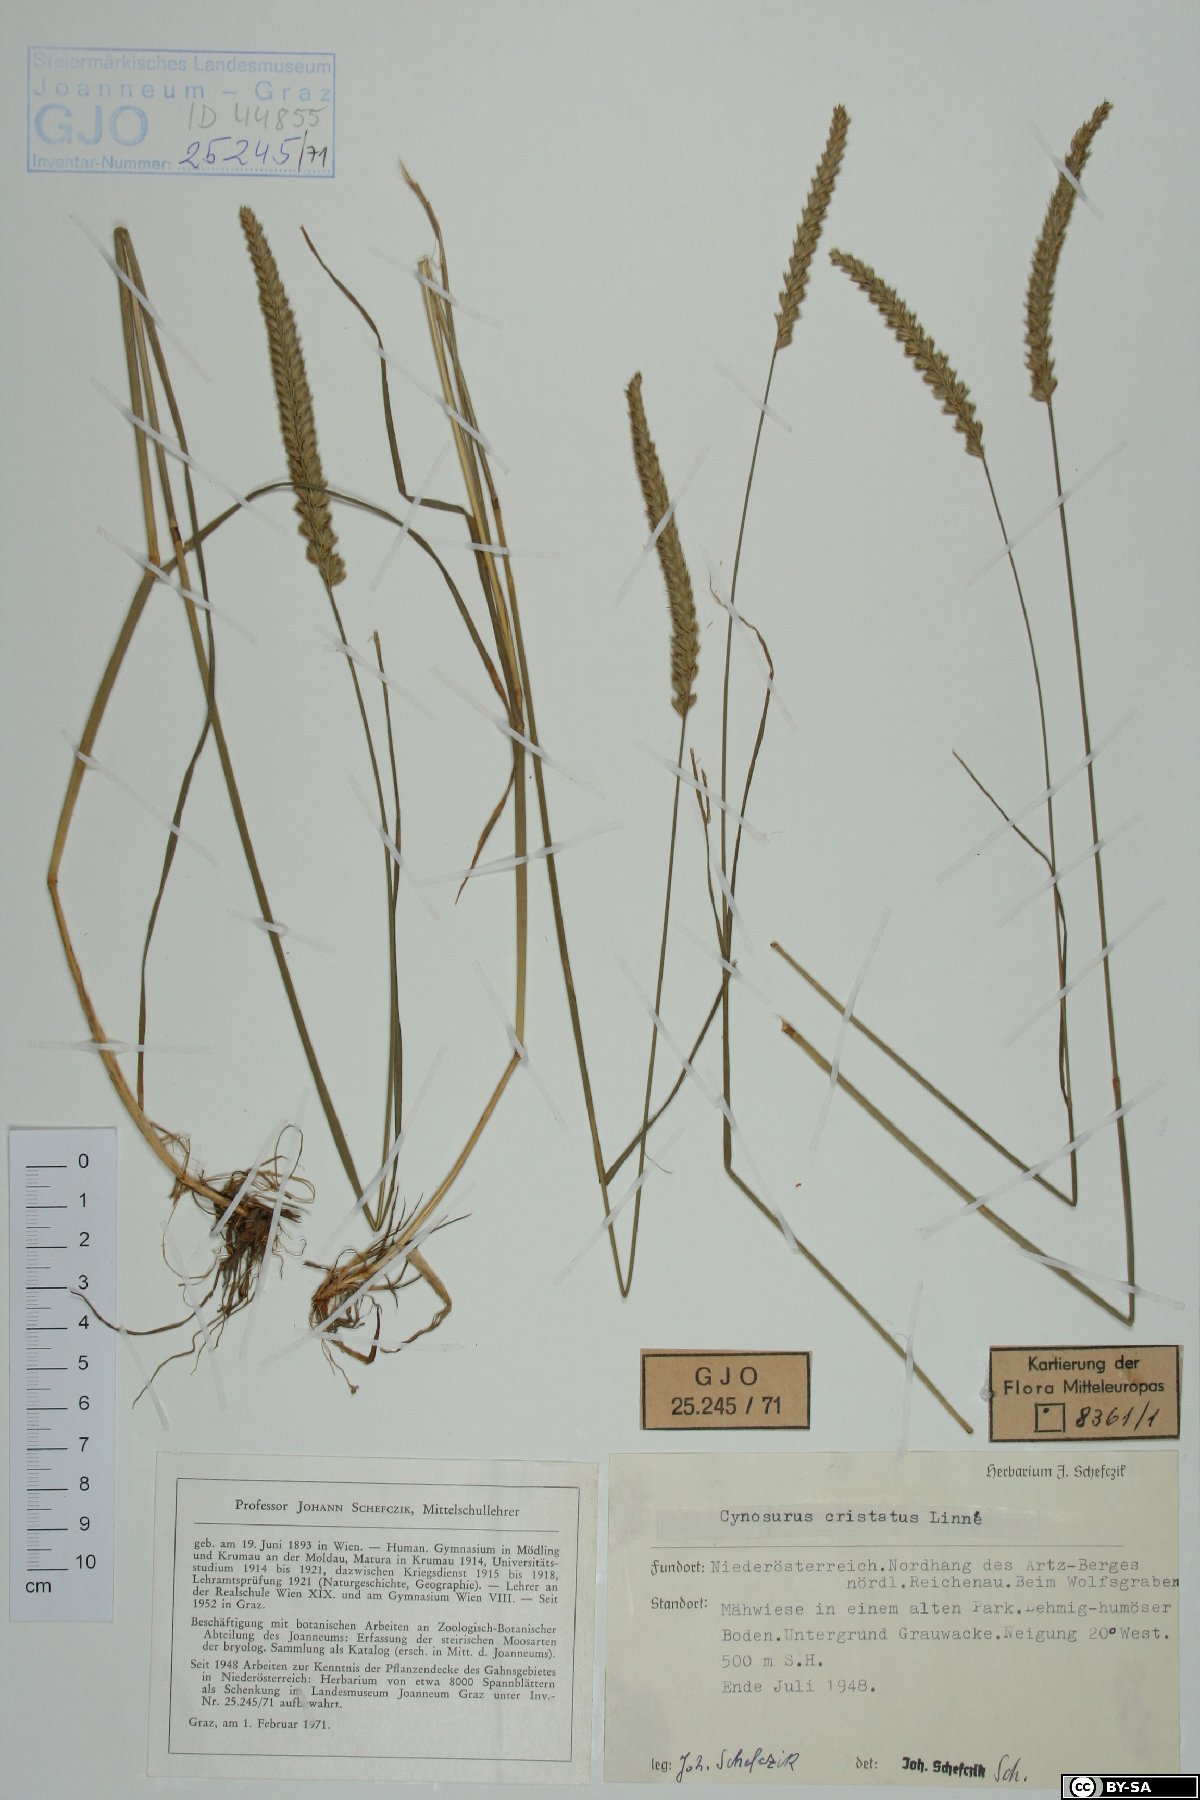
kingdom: Plantae
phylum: Tracheophyta
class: Liliopsida
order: Poales
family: Poaceae
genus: Cynosurus
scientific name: Cynosurus cristatus
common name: Crested dog's-tail
